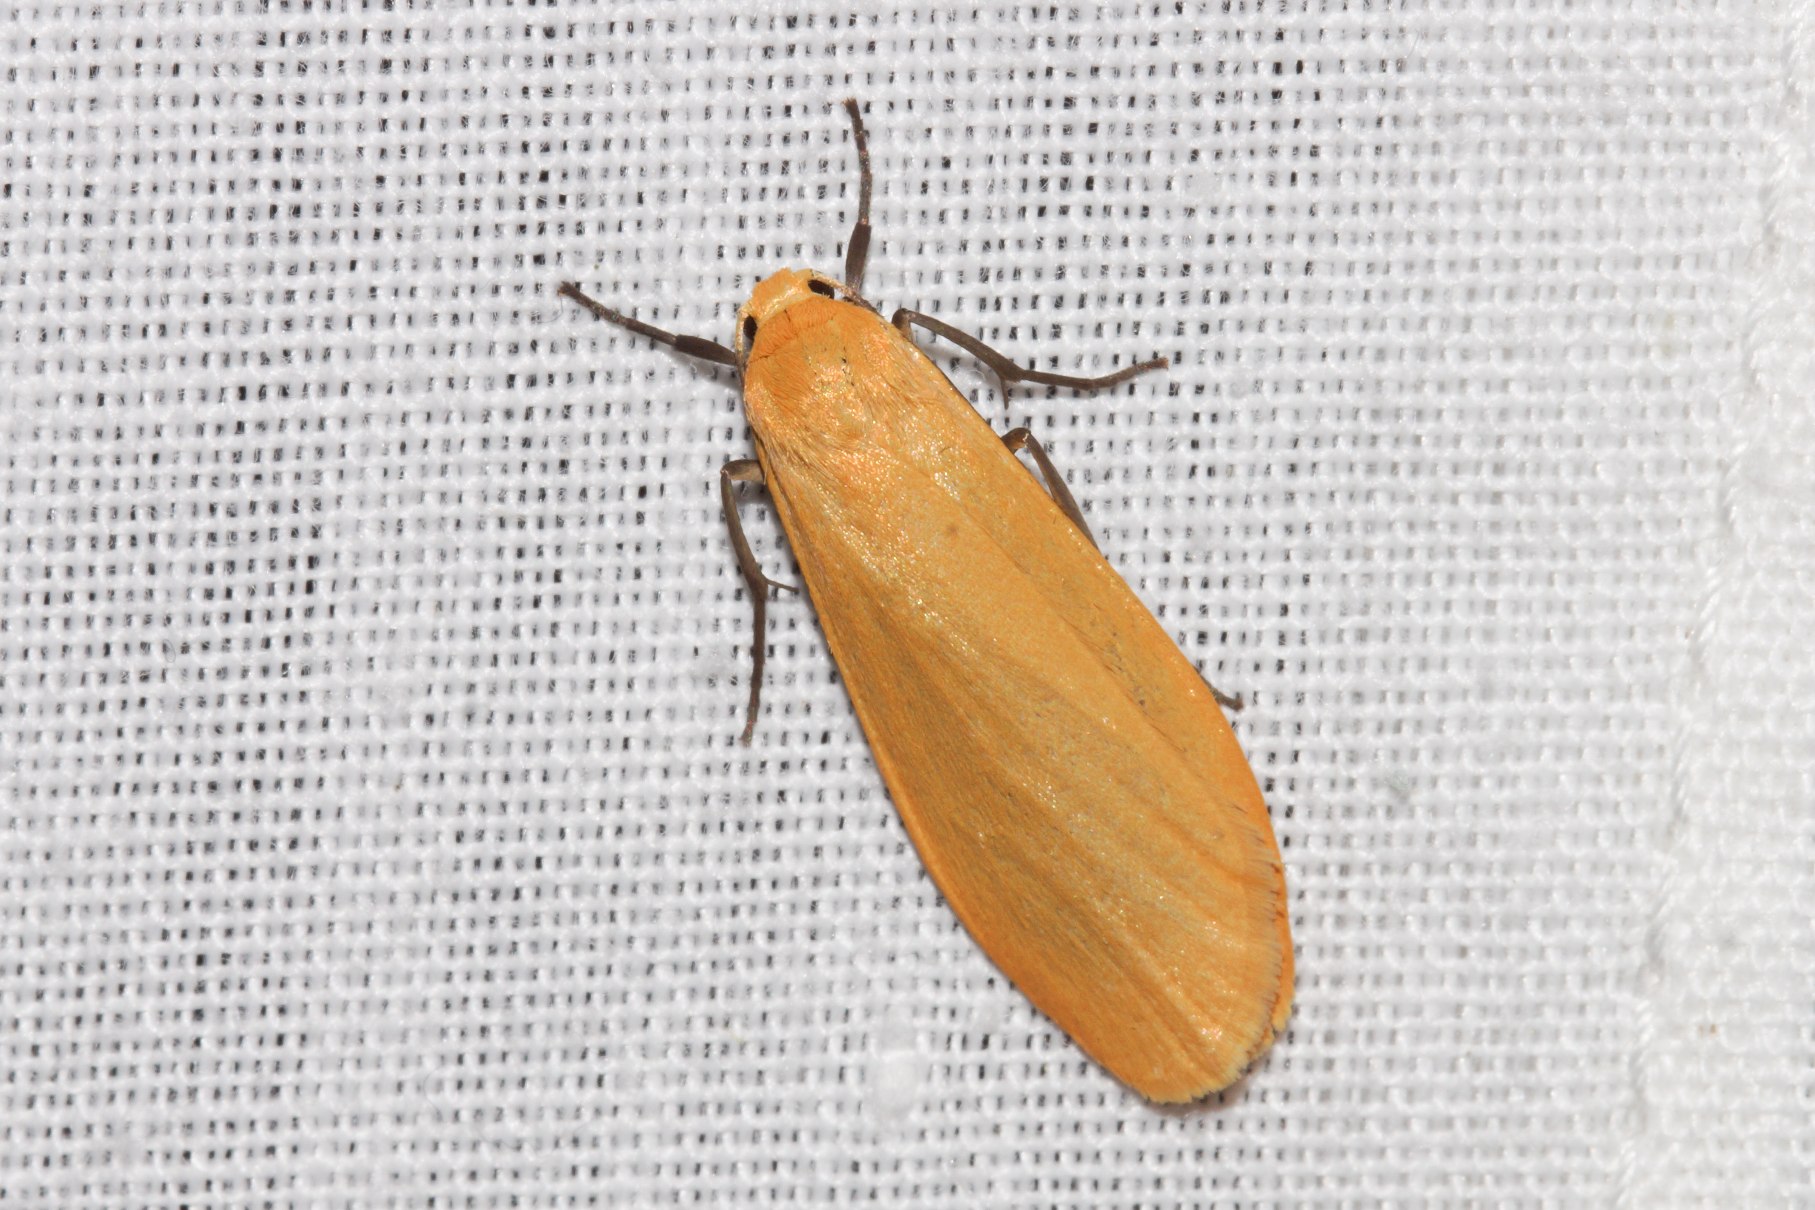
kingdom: Animalia
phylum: Arthropoda
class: Insecta
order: Lepidoptera
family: Erebidae
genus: Wittia
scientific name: Wittia sororcula
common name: Guldgul lavspinder
